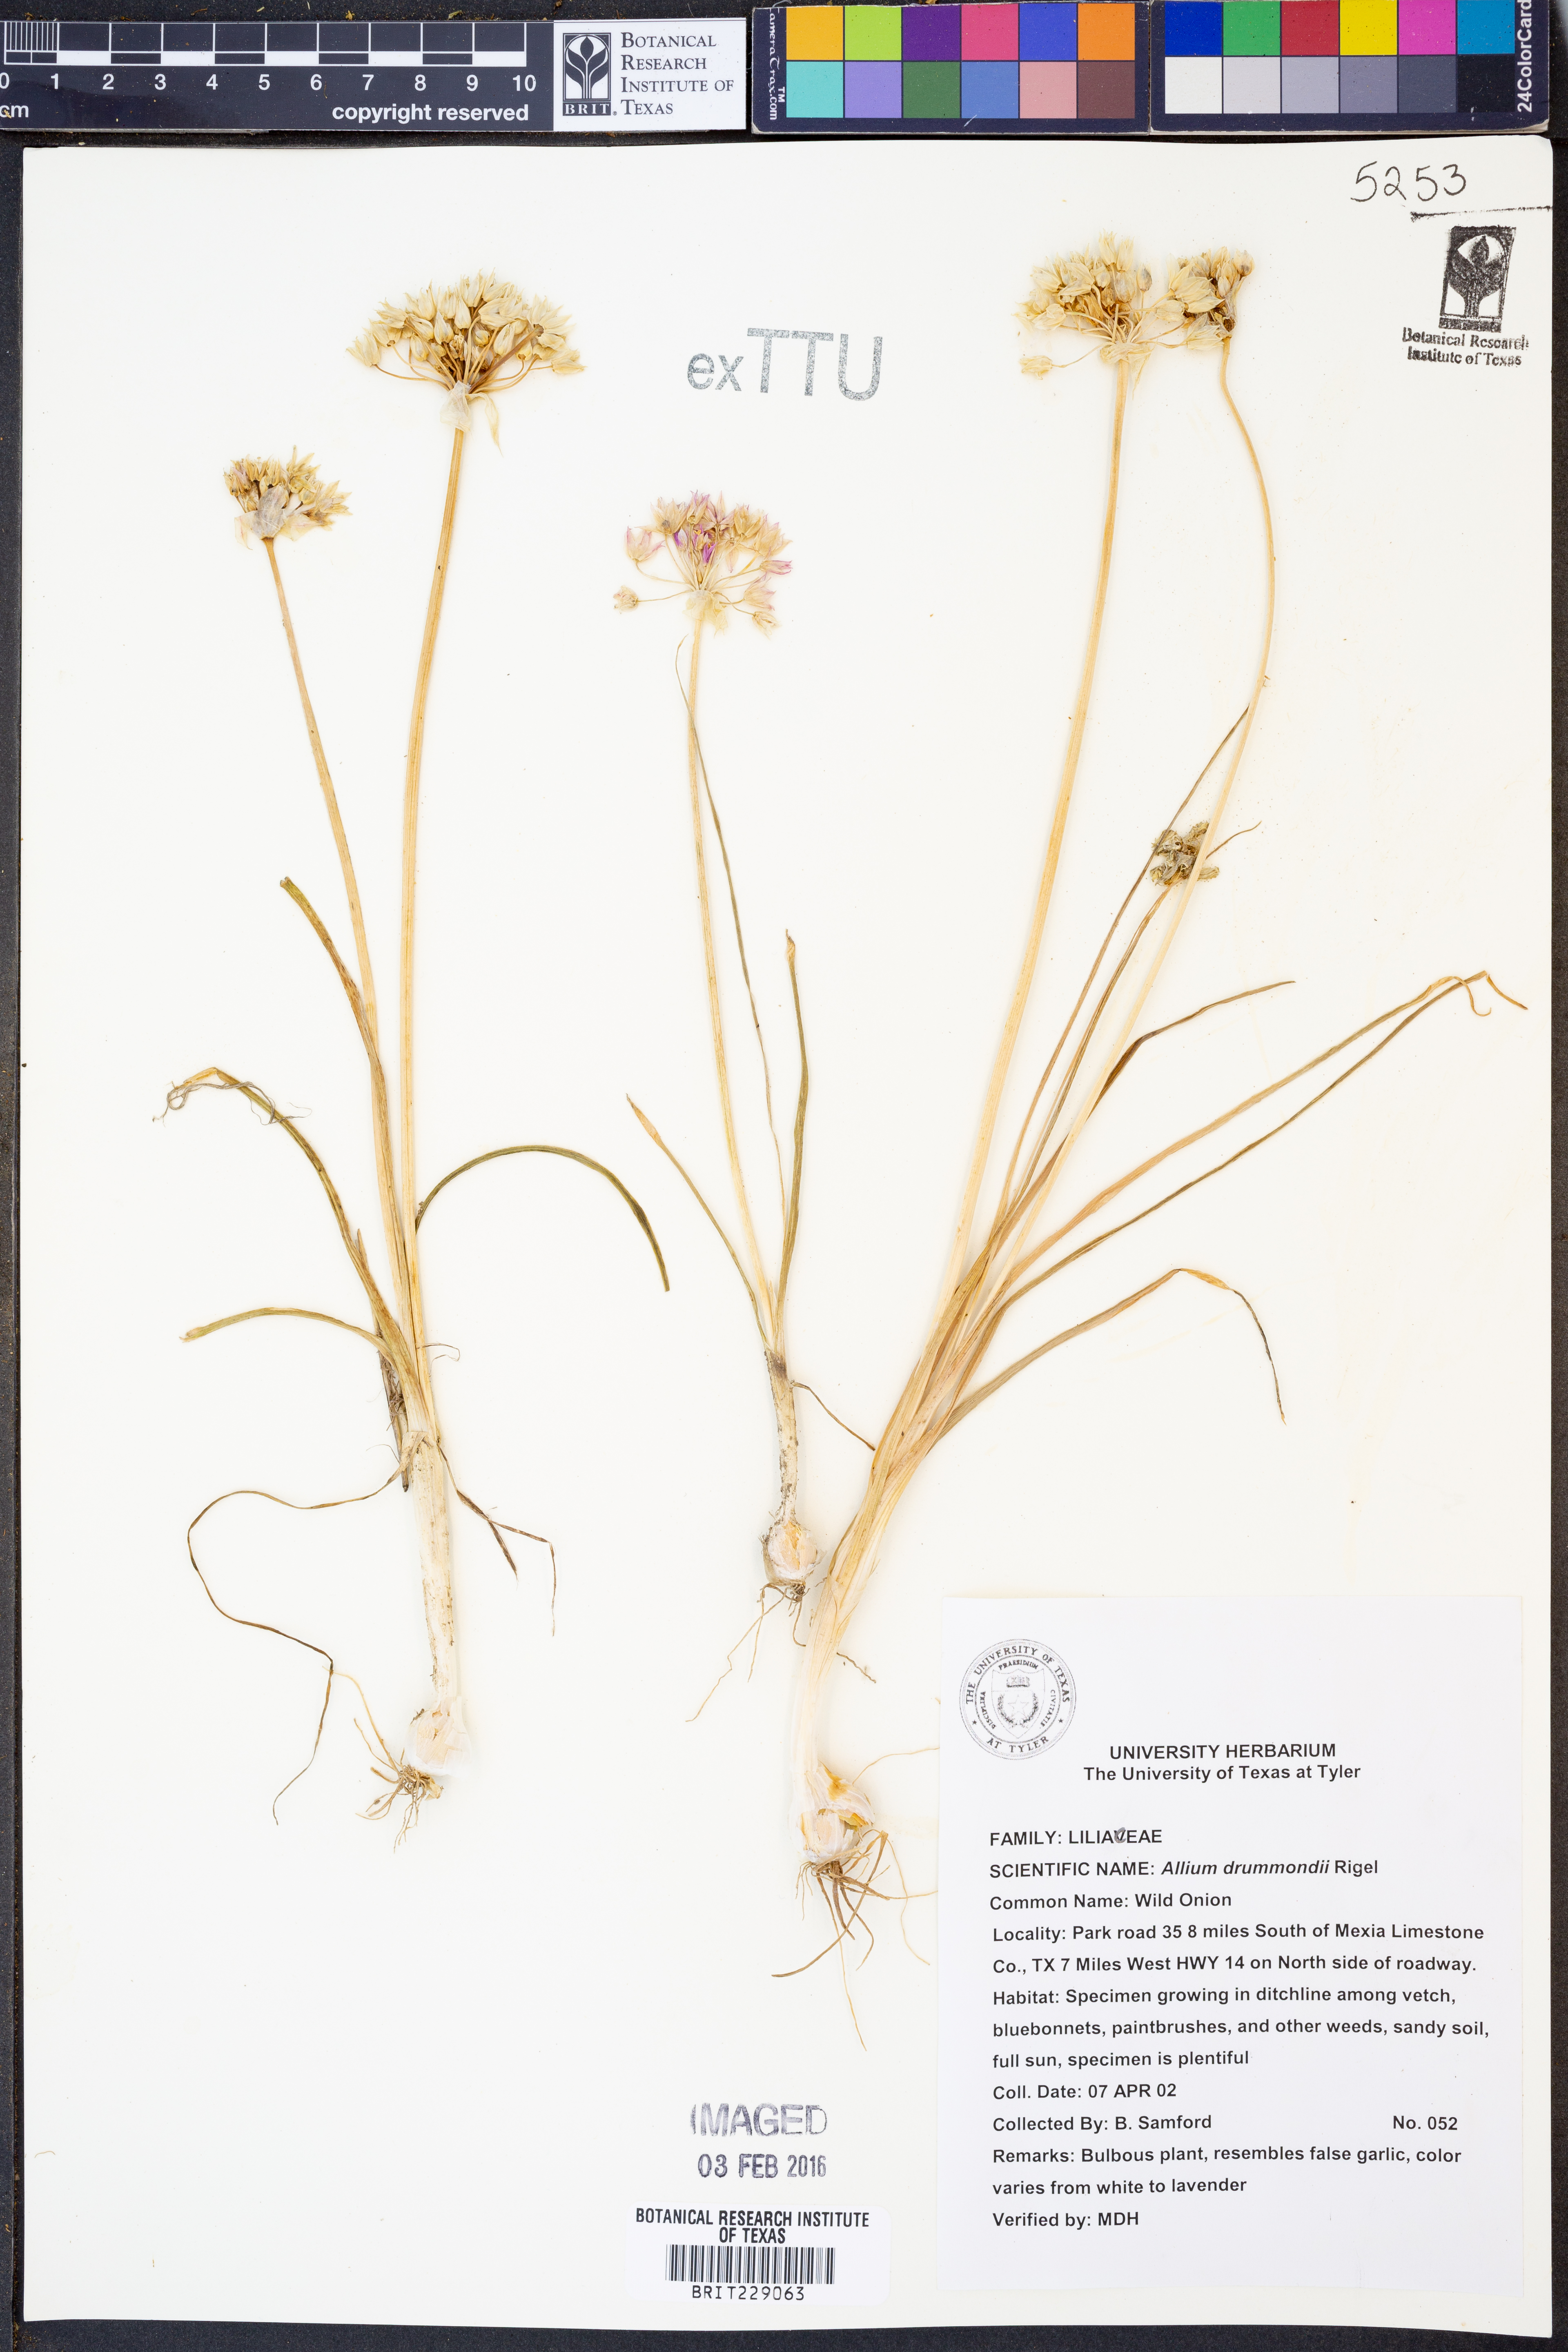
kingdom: Plantae
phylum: Tracheophyta
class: Liliopsida
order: Asparagales
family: Amaryllidaceae
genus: Allium
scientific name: Allium drummondii
